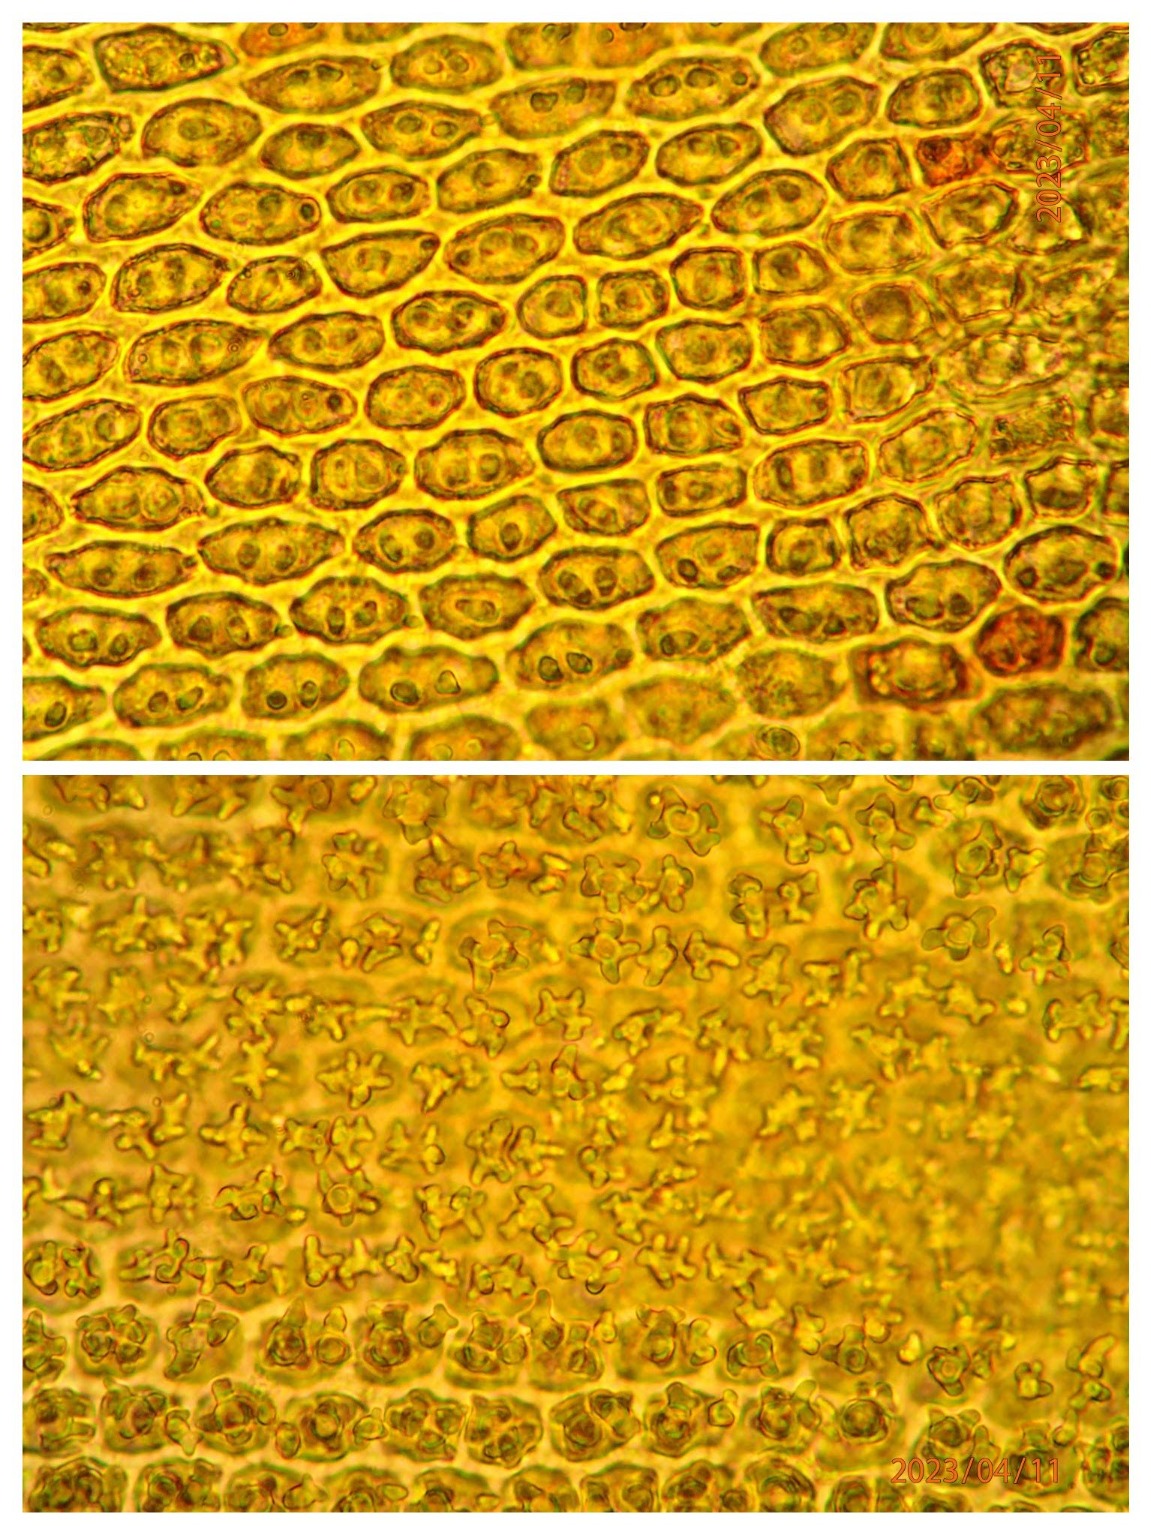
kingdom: Plantae
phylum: Bryophyta
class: Bryopsida
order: Hedwigiales
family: Hedwigiaceae
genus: Hedwigia
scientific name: Hedwigia ciliata
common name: Hvidspidset hedwigia
